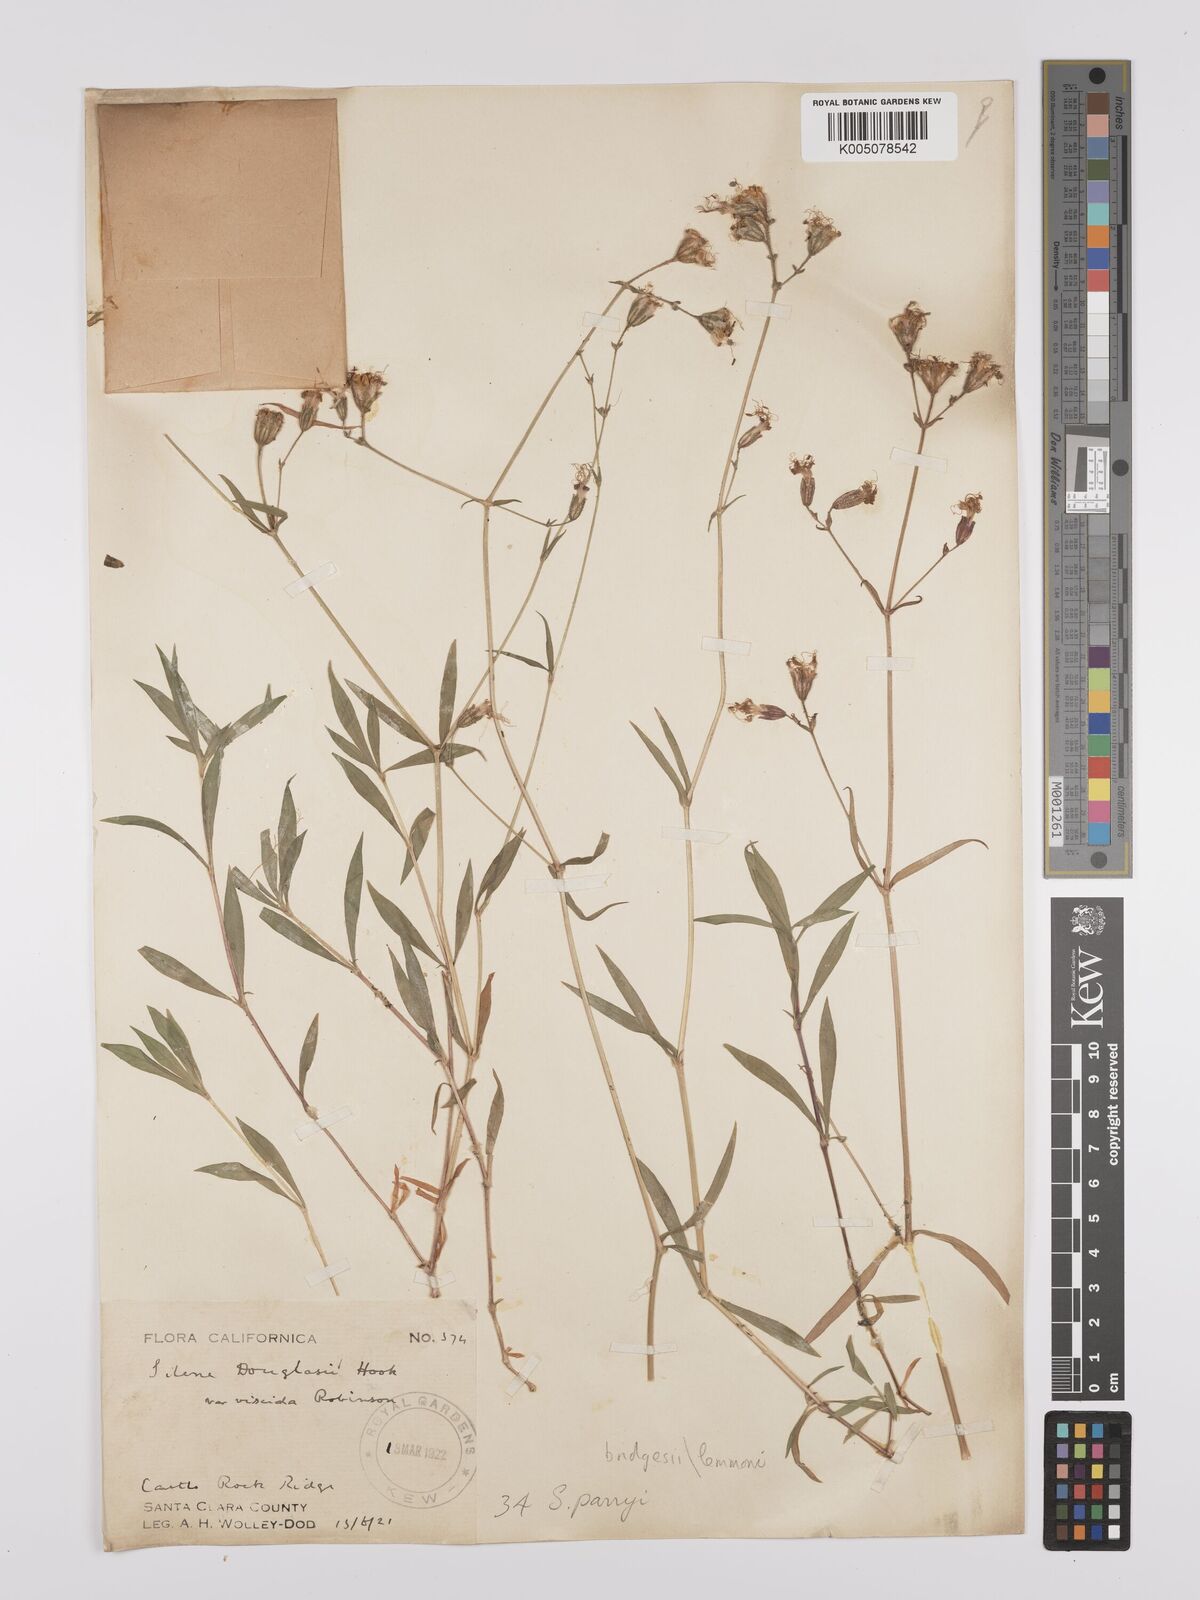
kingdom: Plantae
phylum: Tracheophyta
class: Magnoliopsida
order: Caryophyllales
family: Caryophyllaceae
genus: Silene
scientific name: Silene parryi
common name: Parry's campion
